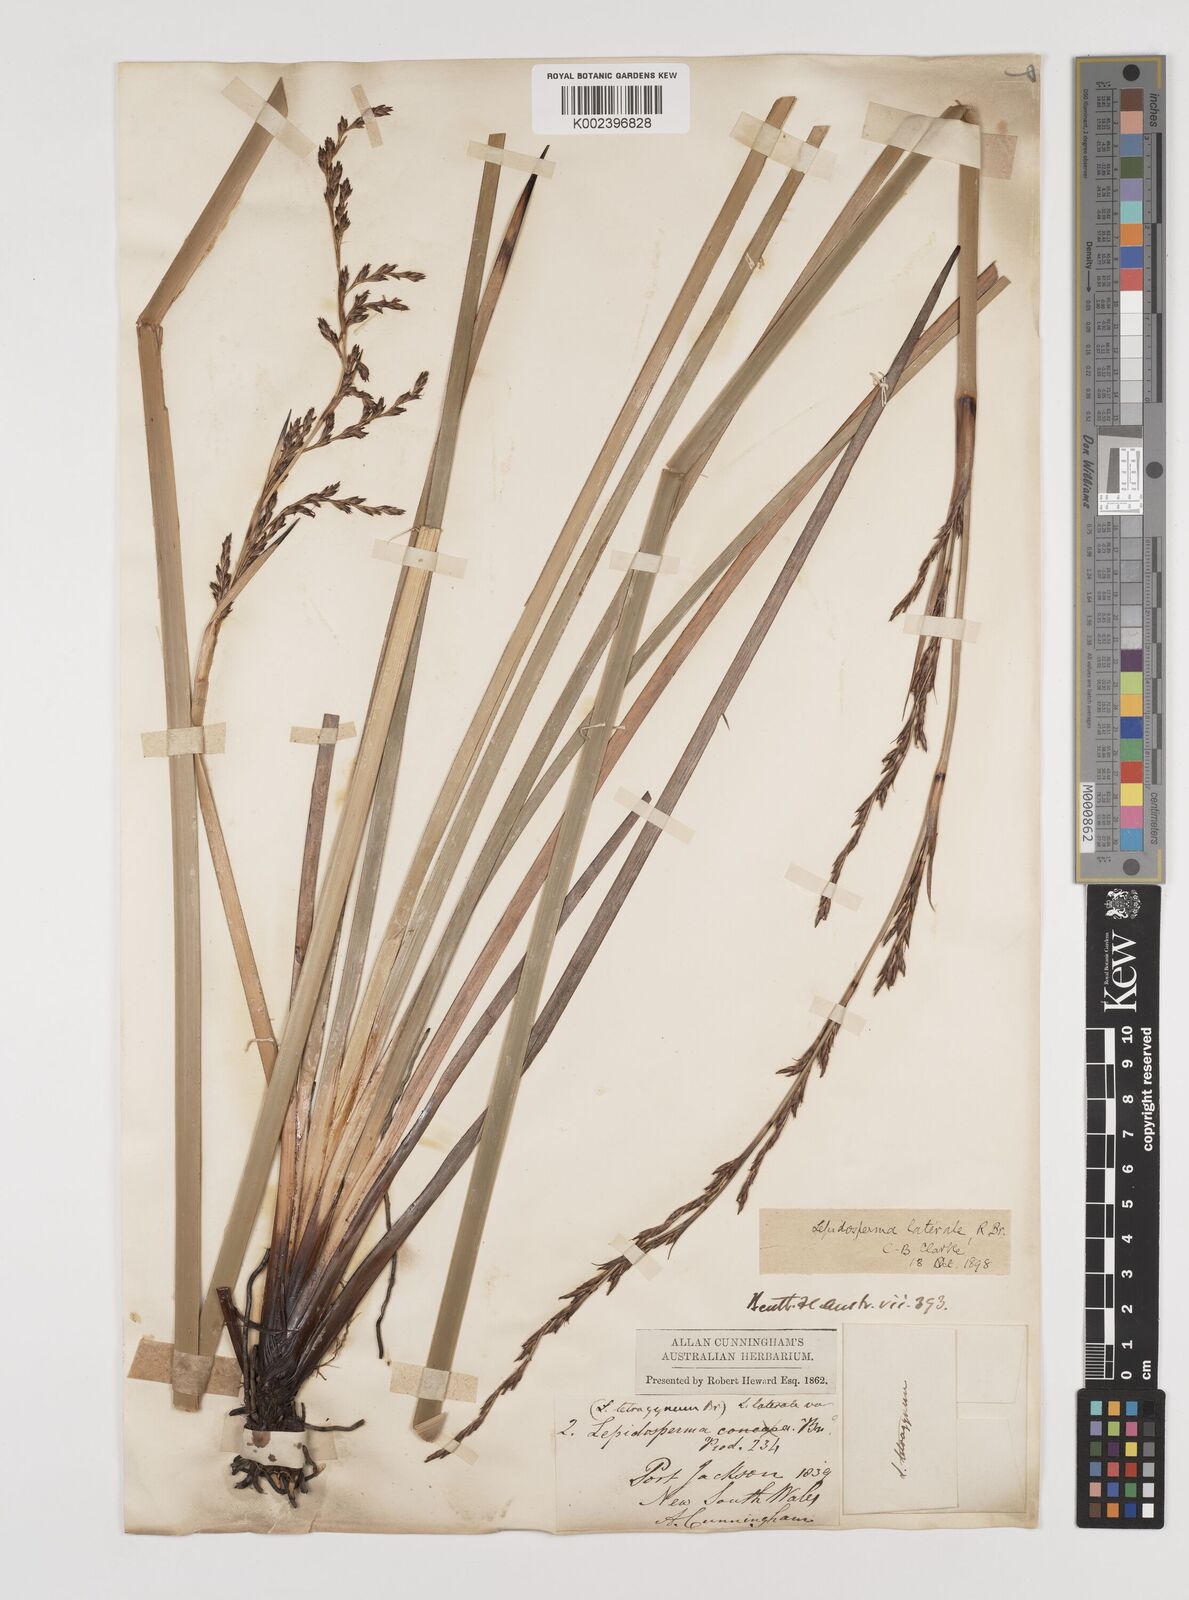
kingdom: Plantae
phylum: Tracheophyta
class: Liliopsida
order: Poales
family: Cyperaceae
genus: Lepidosperma
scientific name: Lepidosperma laterale
